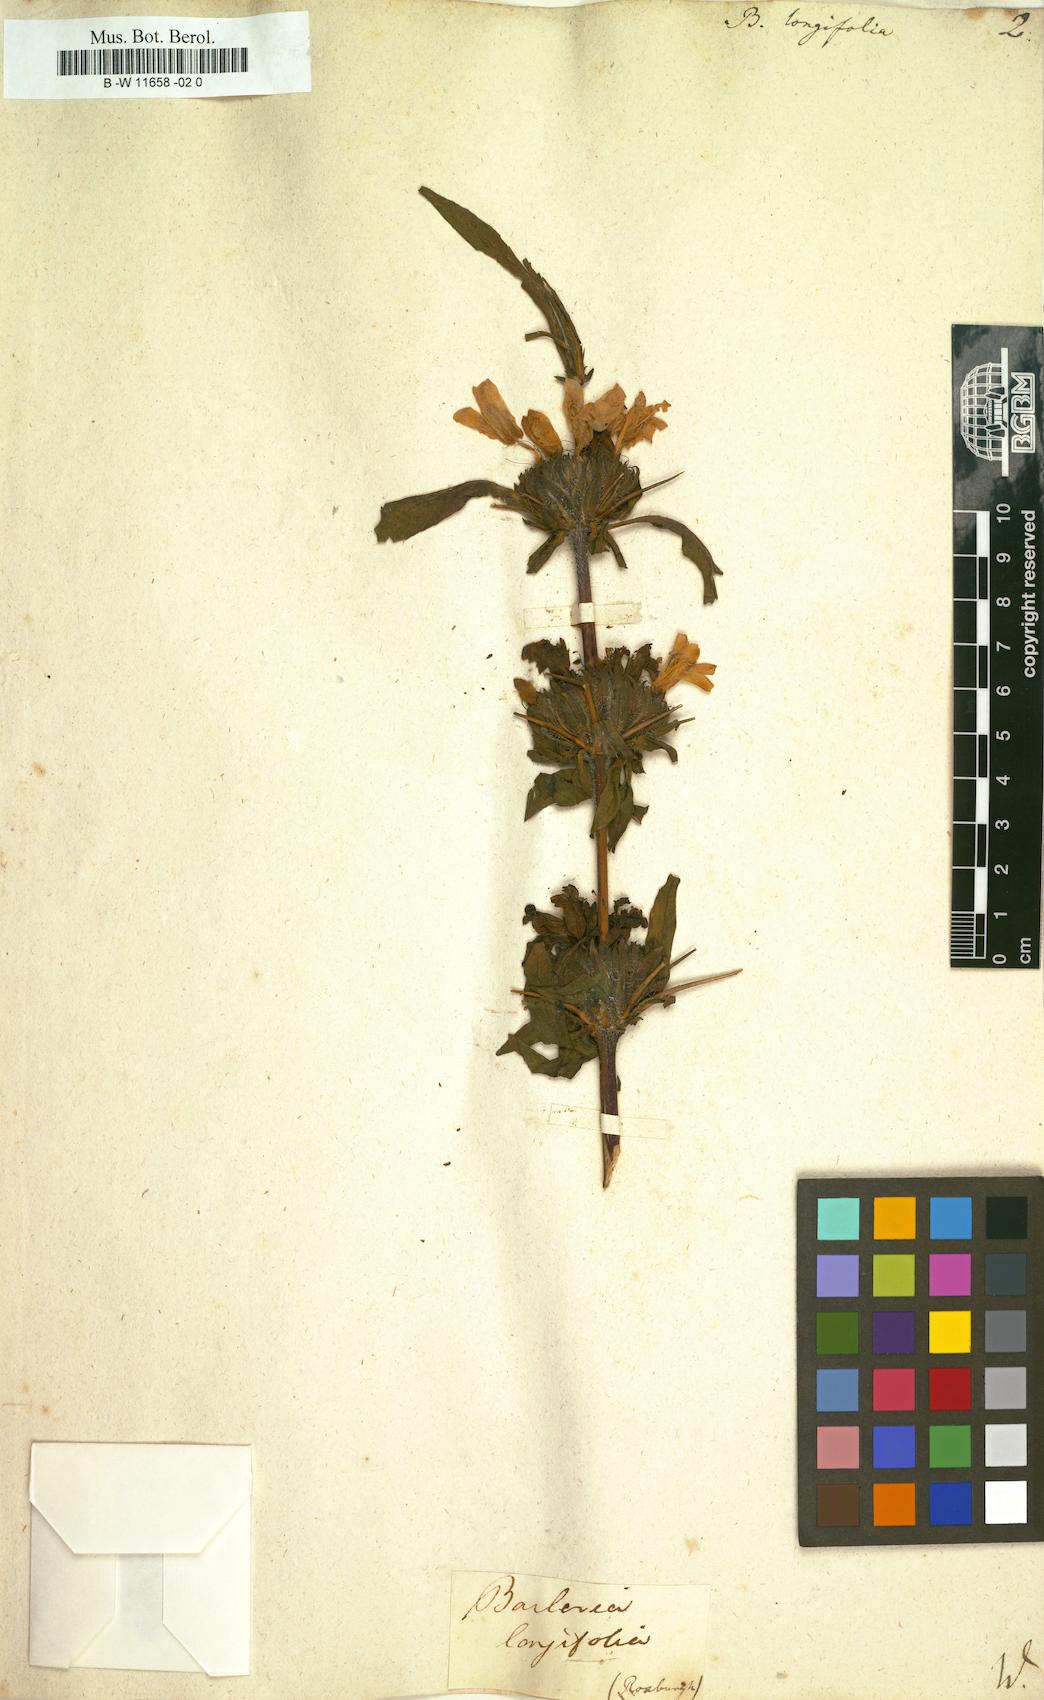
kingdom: Plantae
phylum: Tracheophyta
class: Magnoliopsida
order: Lamiales
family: Acanthaceae
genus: Hygrophila
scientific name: Hygrophila auriculata
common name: Hygrophila
